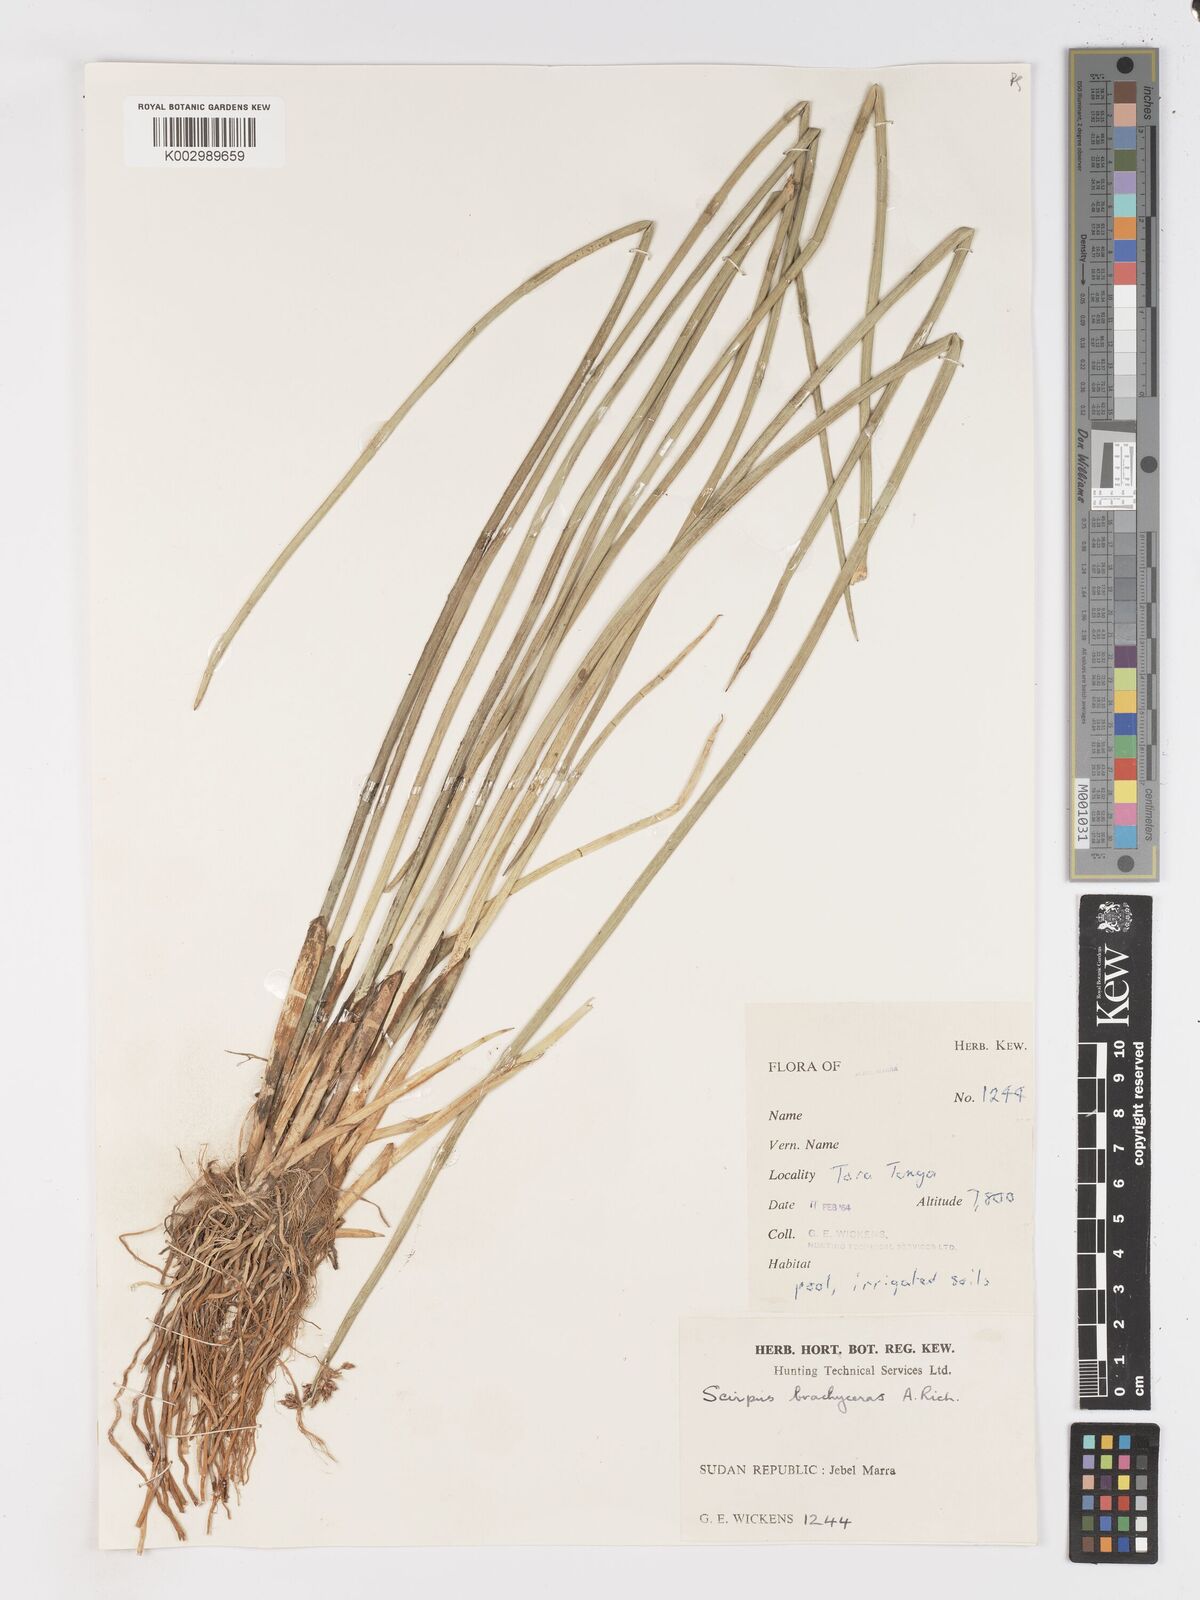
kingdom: Plantae
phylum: Tracheophyta
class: Liliopsida
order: Poales
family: Cyperaceae
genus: Schoenoplectiella
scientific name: Schoenoplectiella brachyceras
